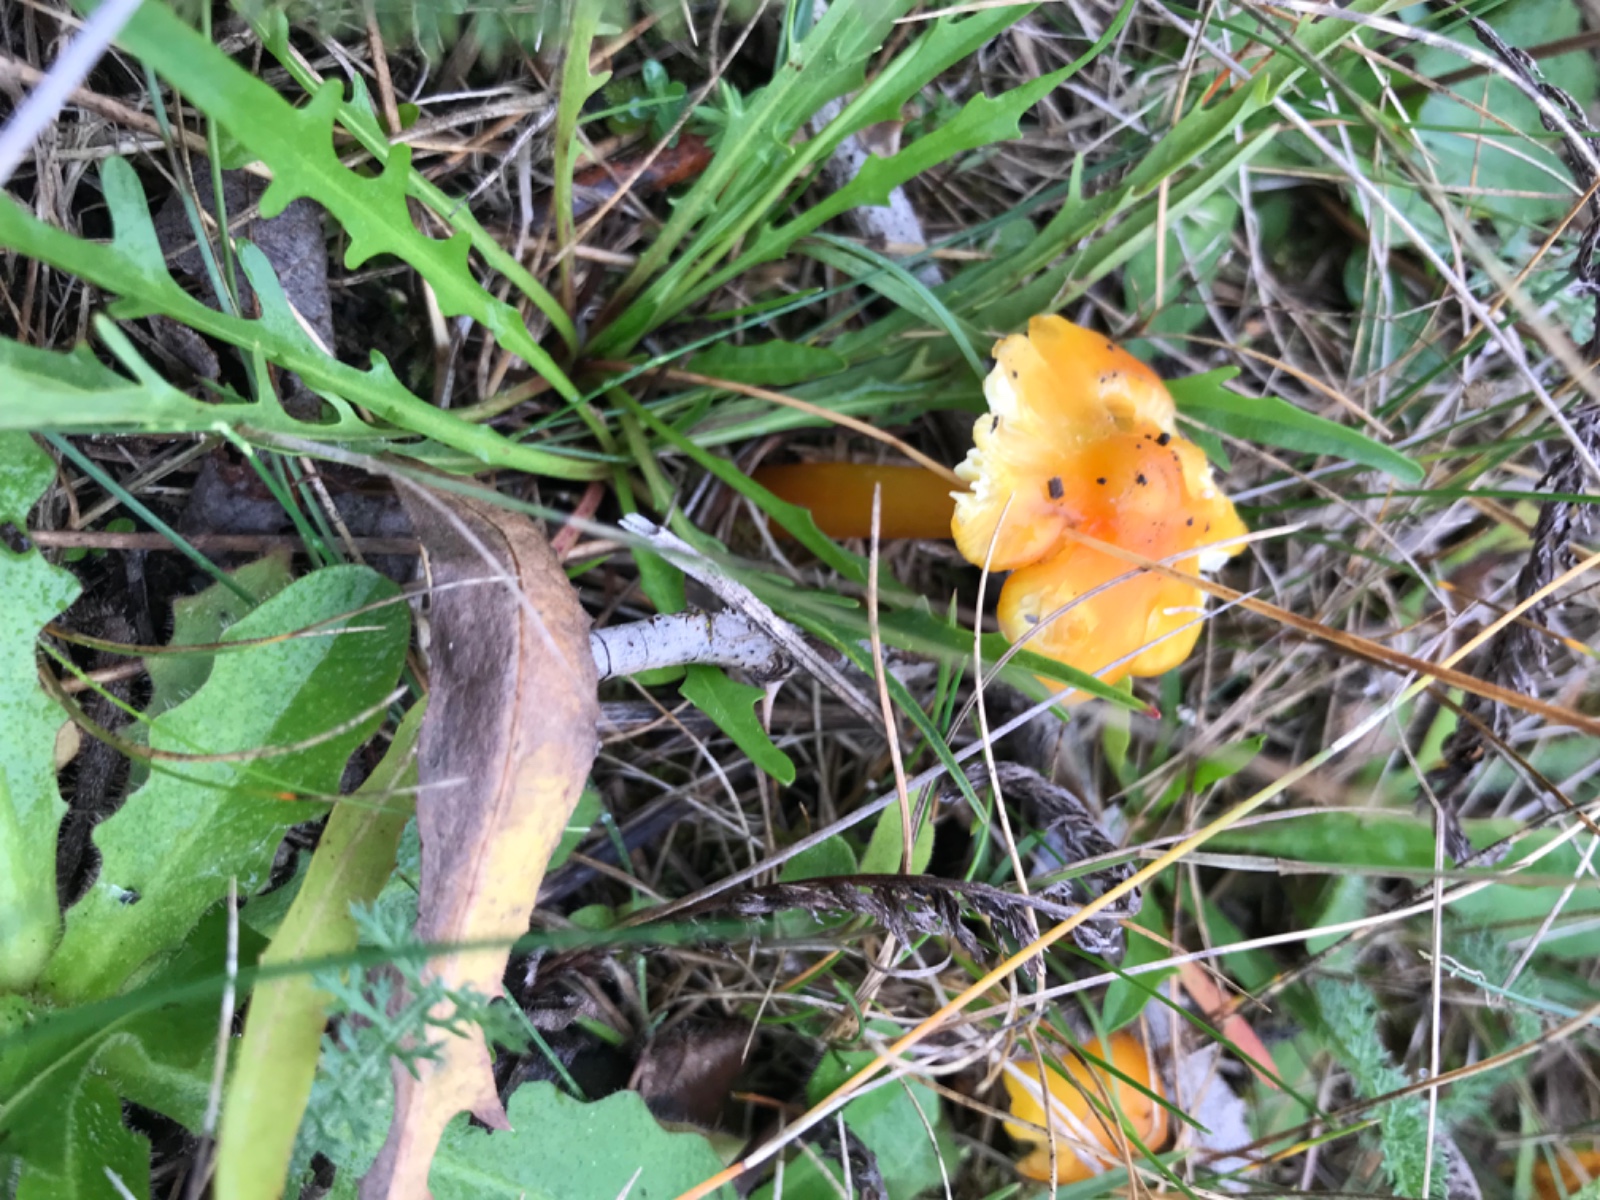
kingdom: Fungi
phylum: Basidiomycota
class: Agaricomycetes
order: Agaricales
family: Hygrophoraceae
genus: Hygrocybe
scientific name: Hygrocybe
